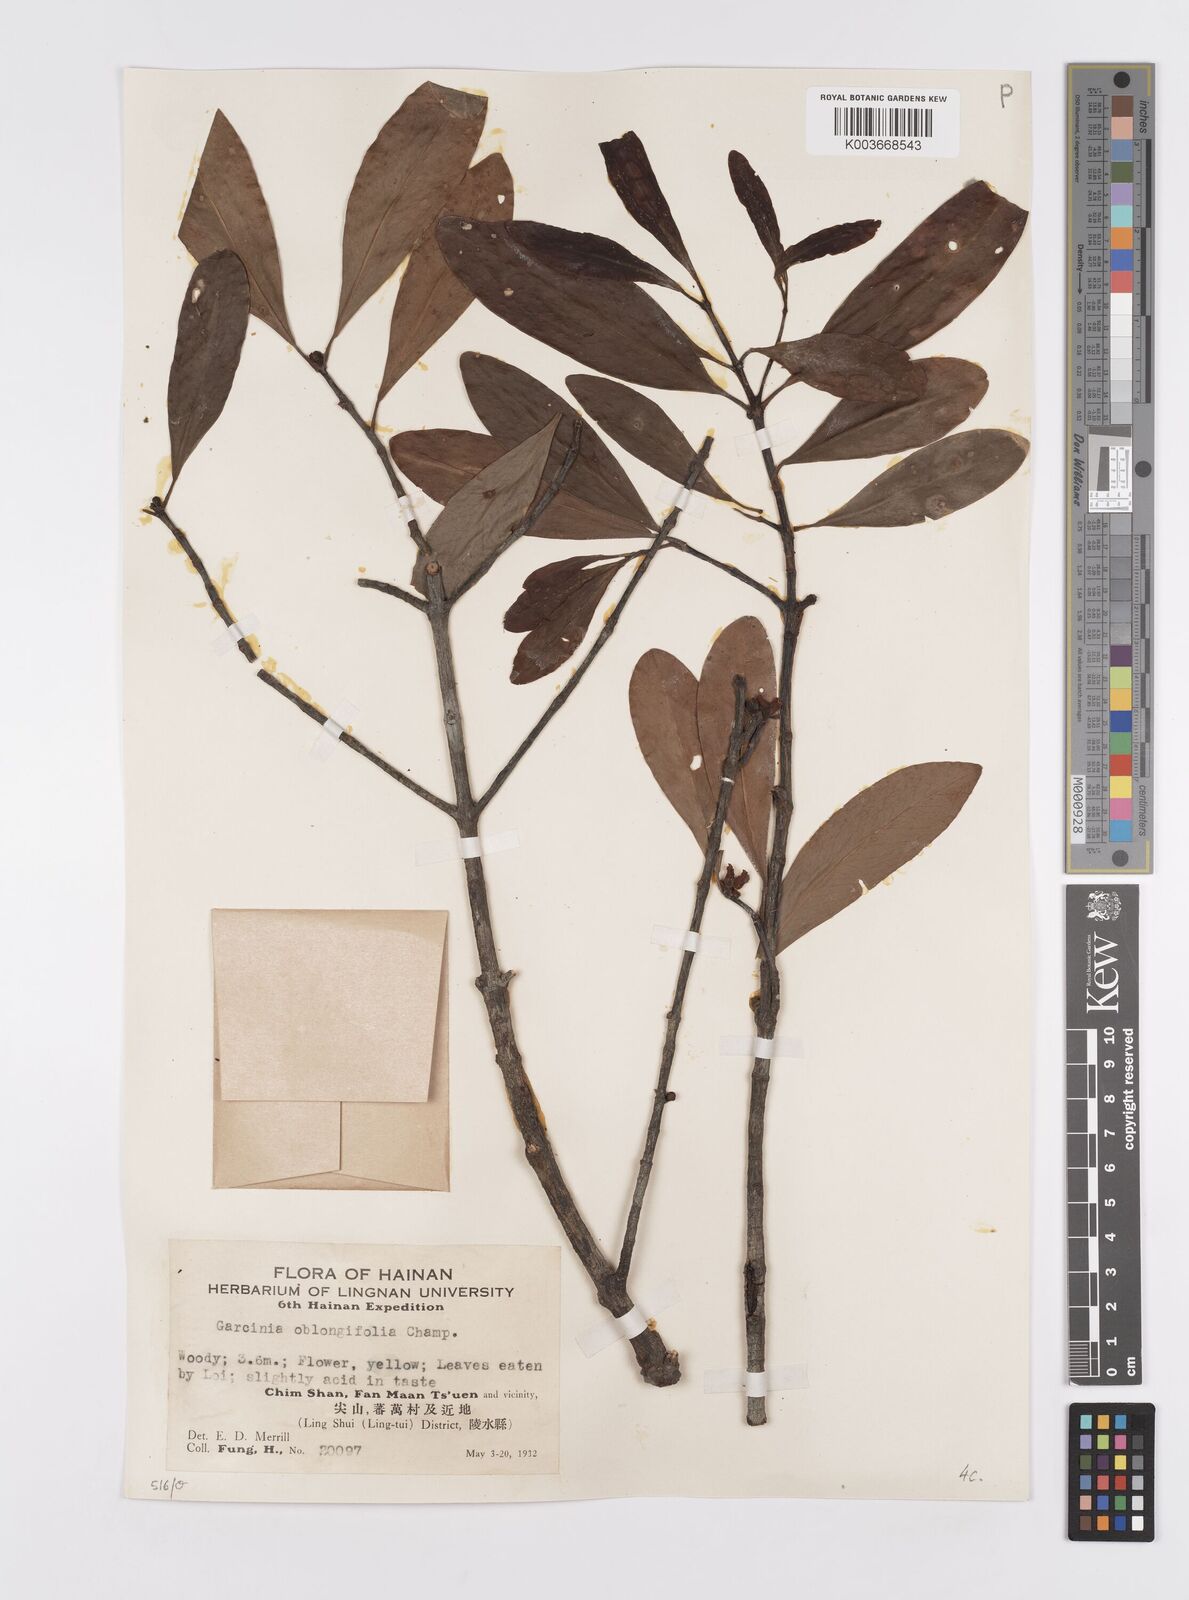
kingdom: Plantae
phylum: Tracheophyta
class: Magnoliopsida
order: Malpighiales
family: Clusiaceae
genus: Garcinia
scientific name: Garcinia oblongifolia
